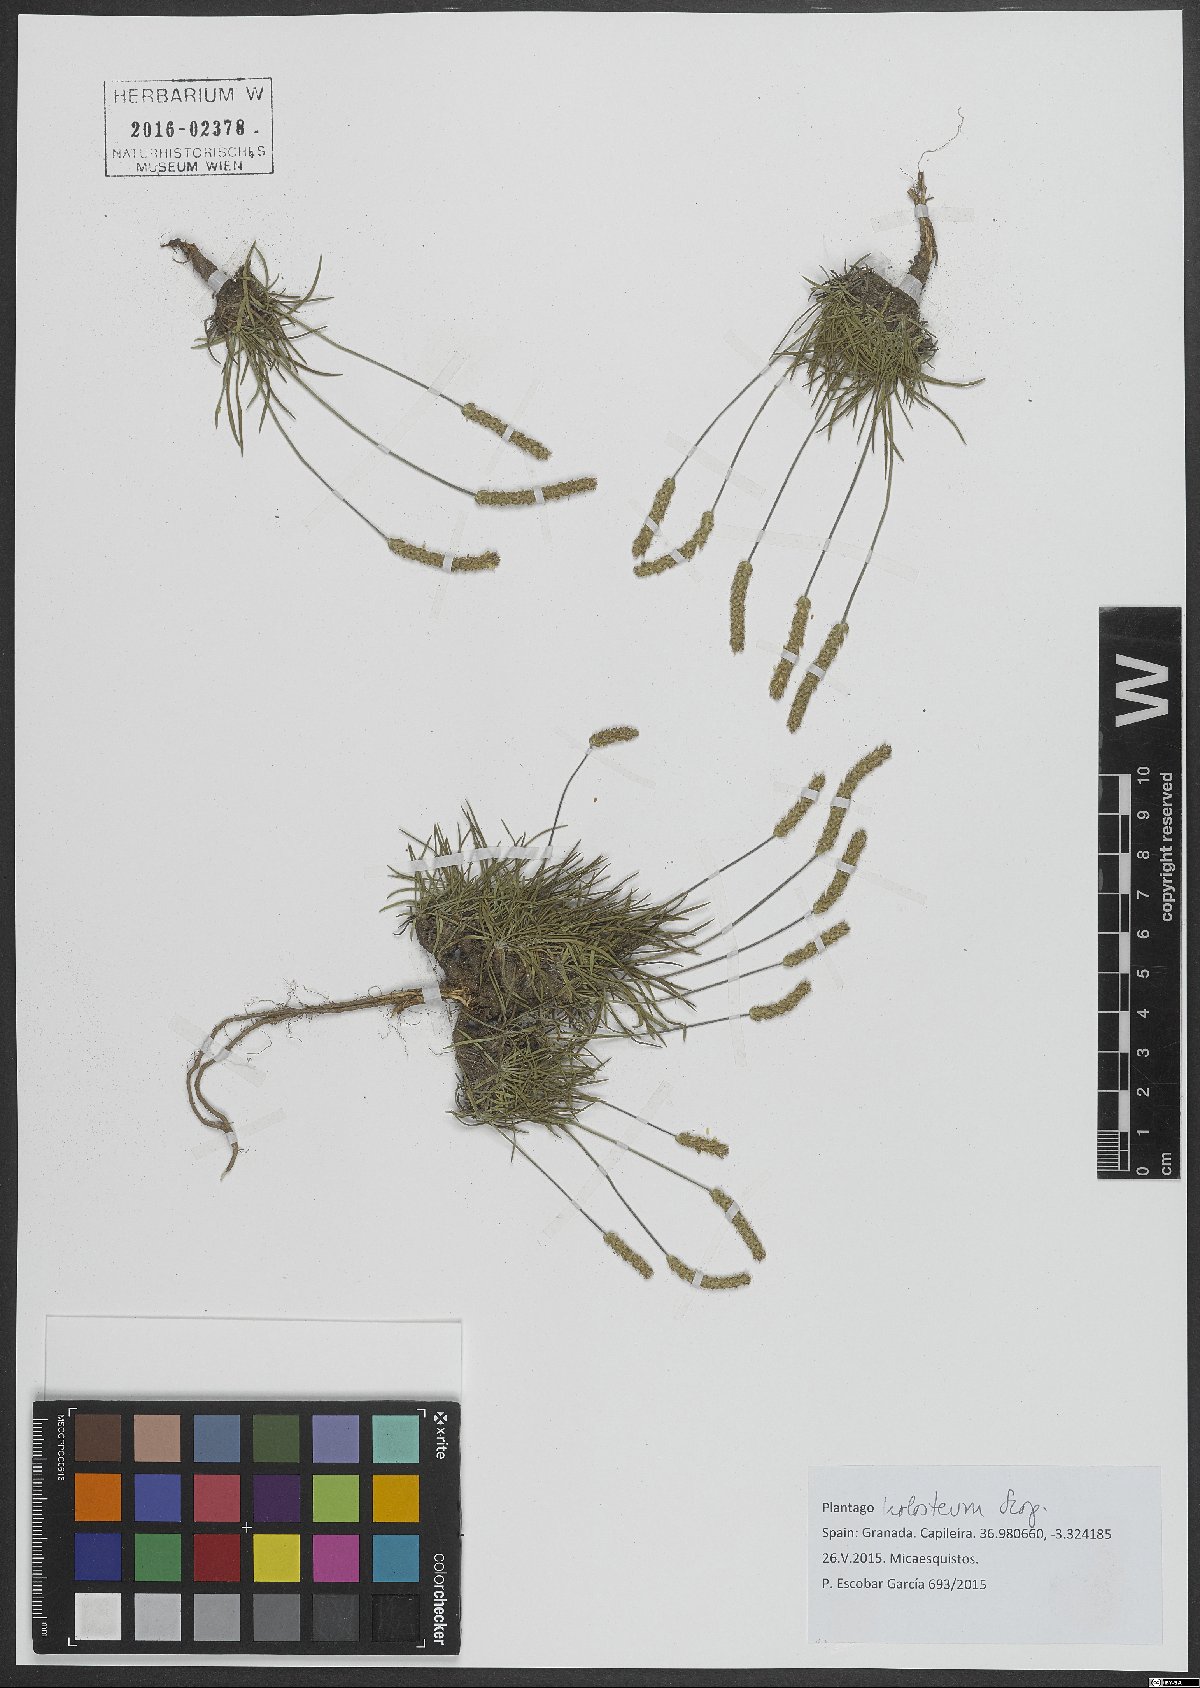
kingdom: Plantae
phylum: Tracheophyta
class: Magnoliopsida
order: Lamiales
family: Plantaginaceae
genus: Plantago
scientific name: Plantago subulata
